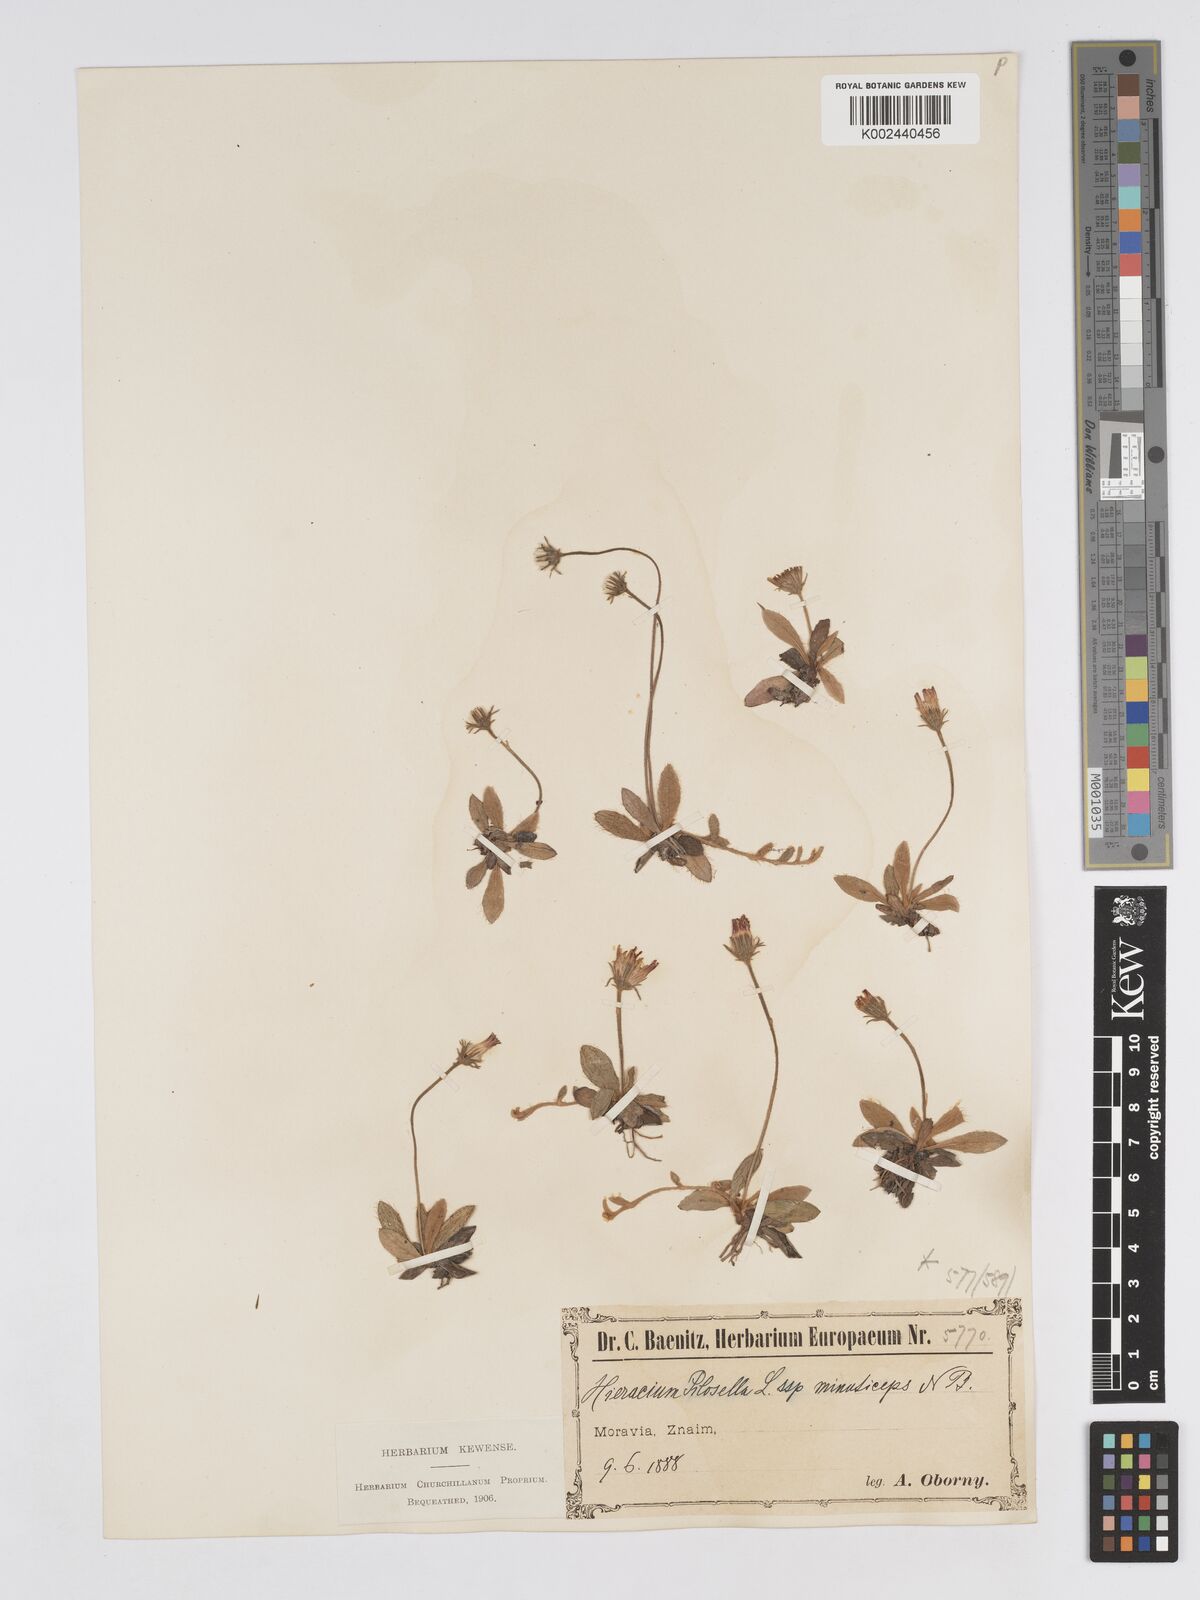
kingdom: Plantae
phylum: Tracheophyta
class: Magnoliopsida
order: Asterales
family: Asteraceae
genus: Pilosella
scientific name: Pilosella officinarum
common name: Mouse-ear hawkweed
